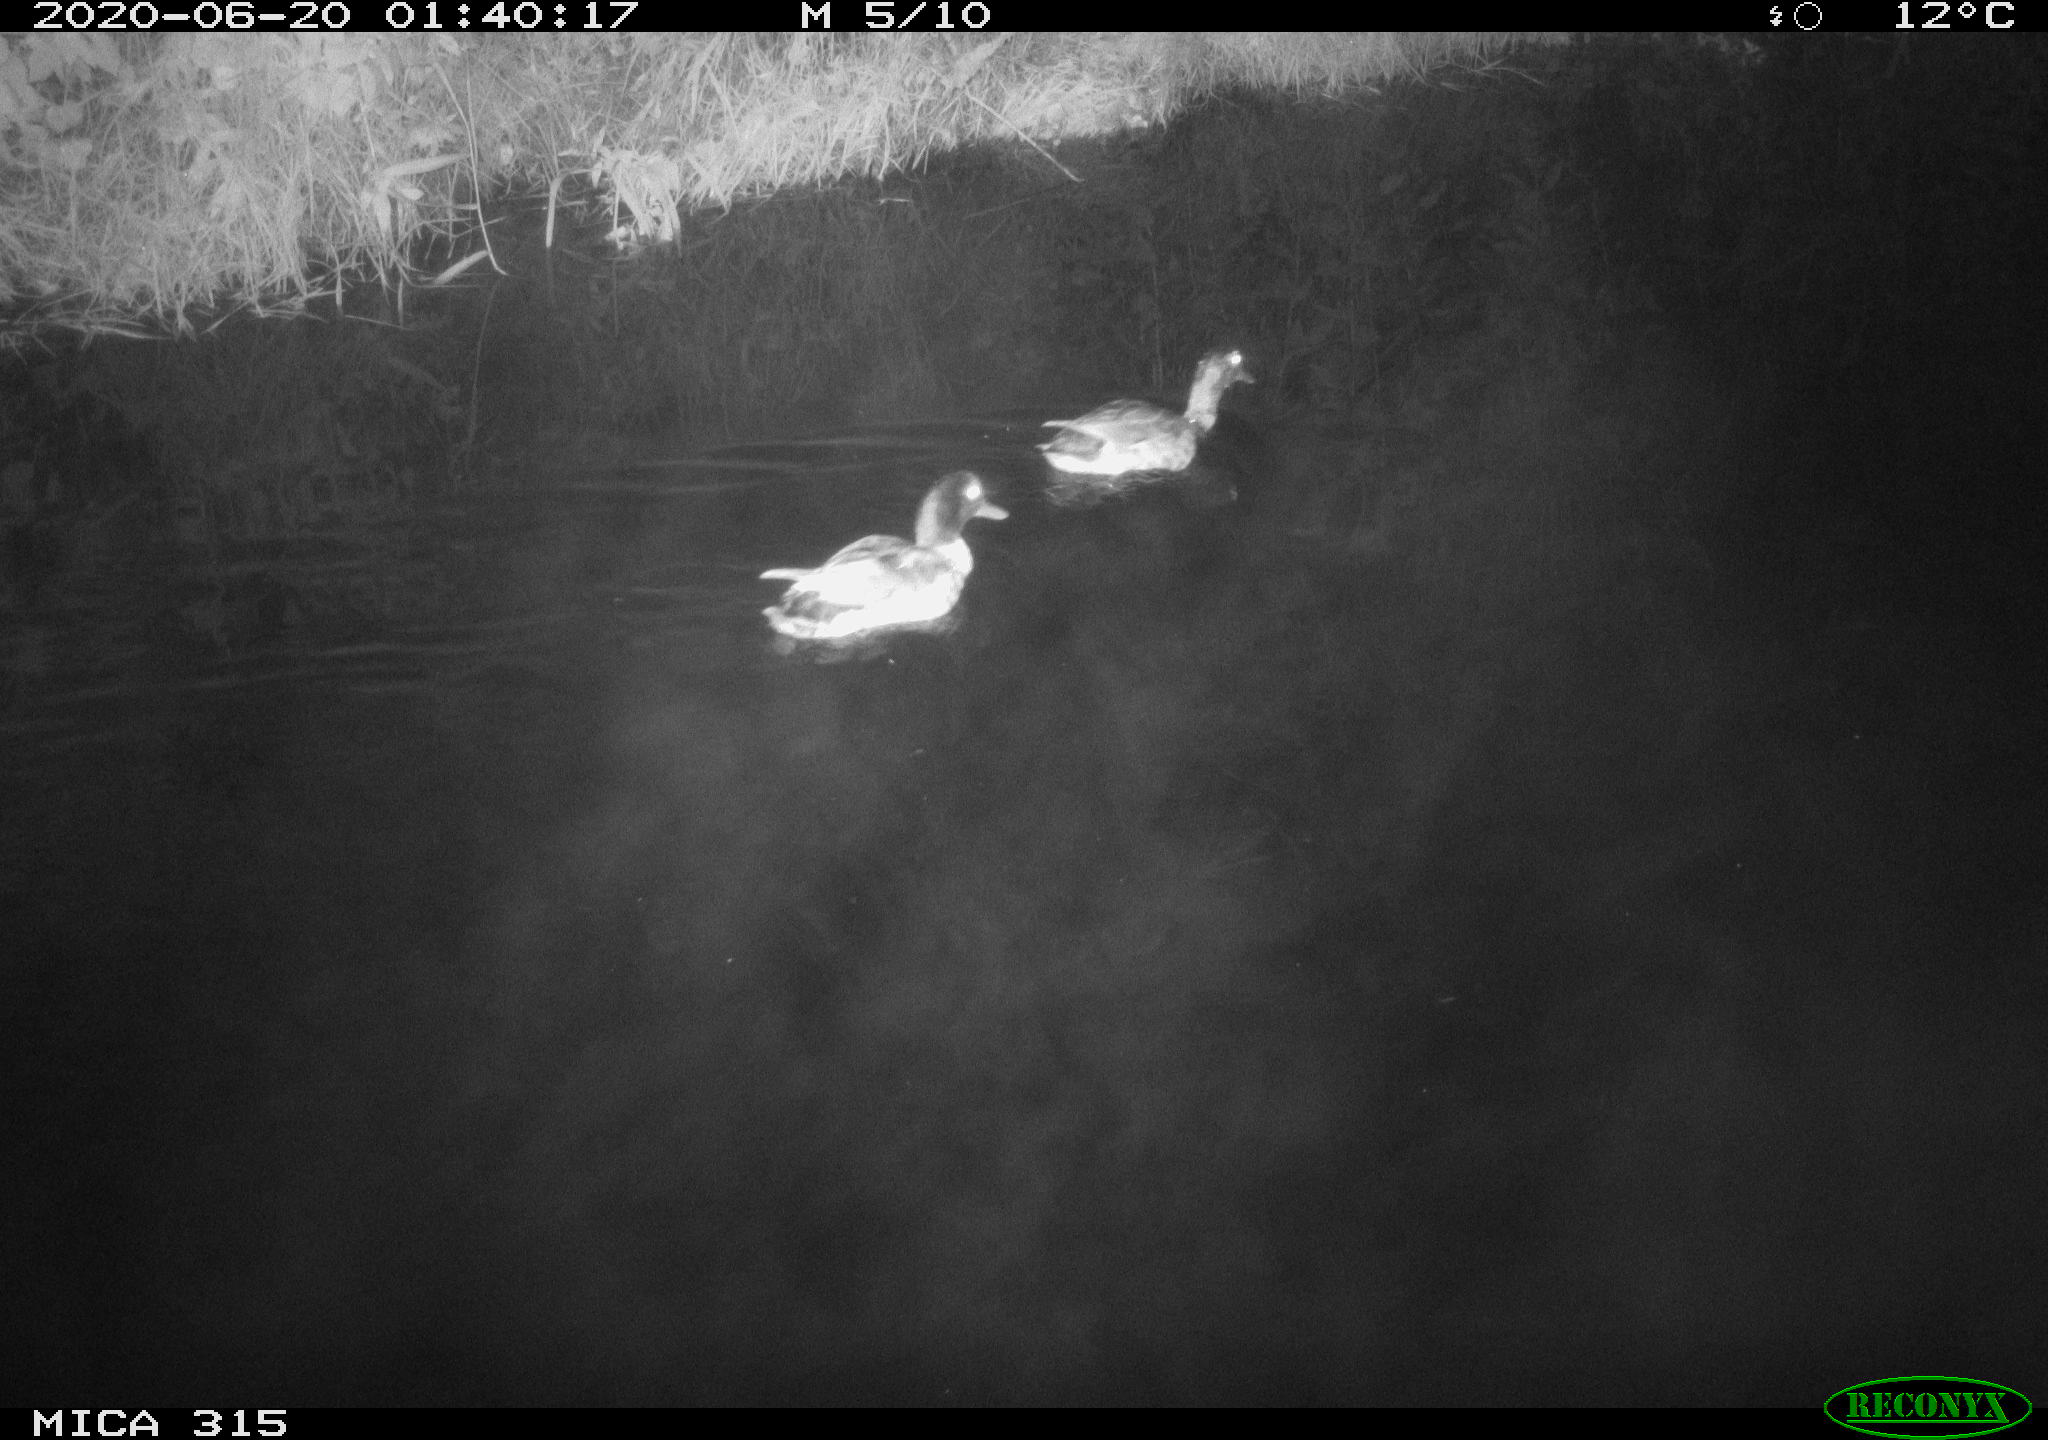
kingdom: Animalia
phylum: Chordata
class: Aves
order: Anseriformes
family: Anatidae
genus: Anas
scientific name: Anas platyrhynchos
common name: Mallard
